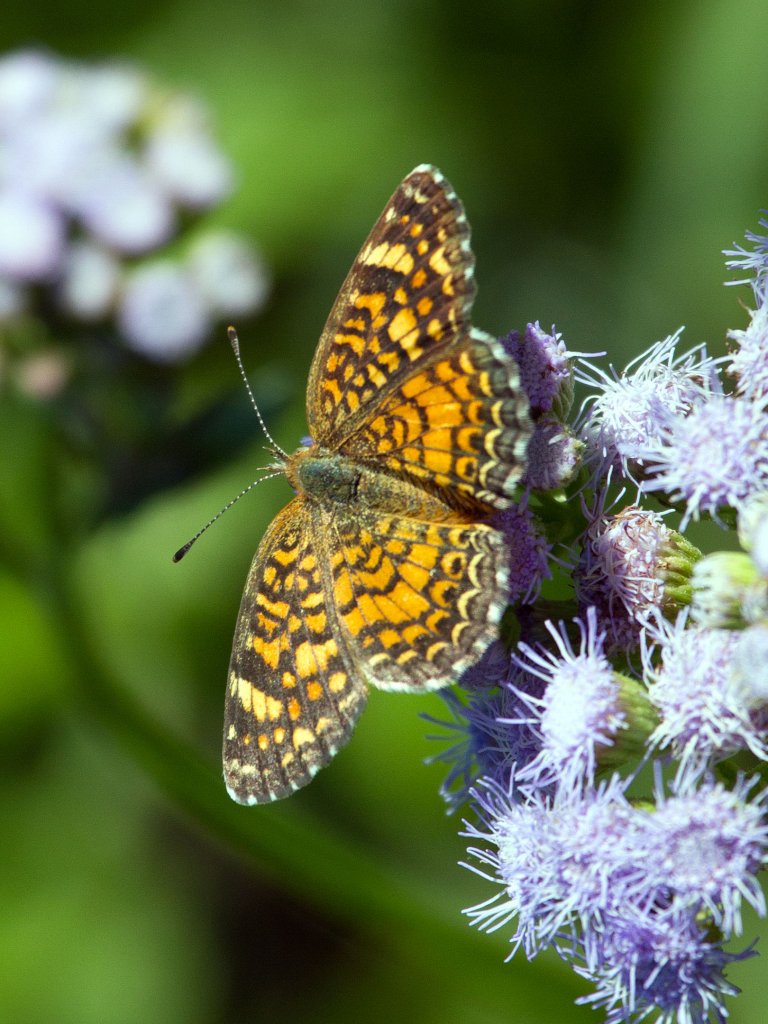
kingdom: Animalia
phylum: Arthropoda
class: Insecta
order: Lepidoptera
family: Nymphalidae
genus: Phyciodes
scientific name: Phyciodes vesta
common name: Vesta Crescent
